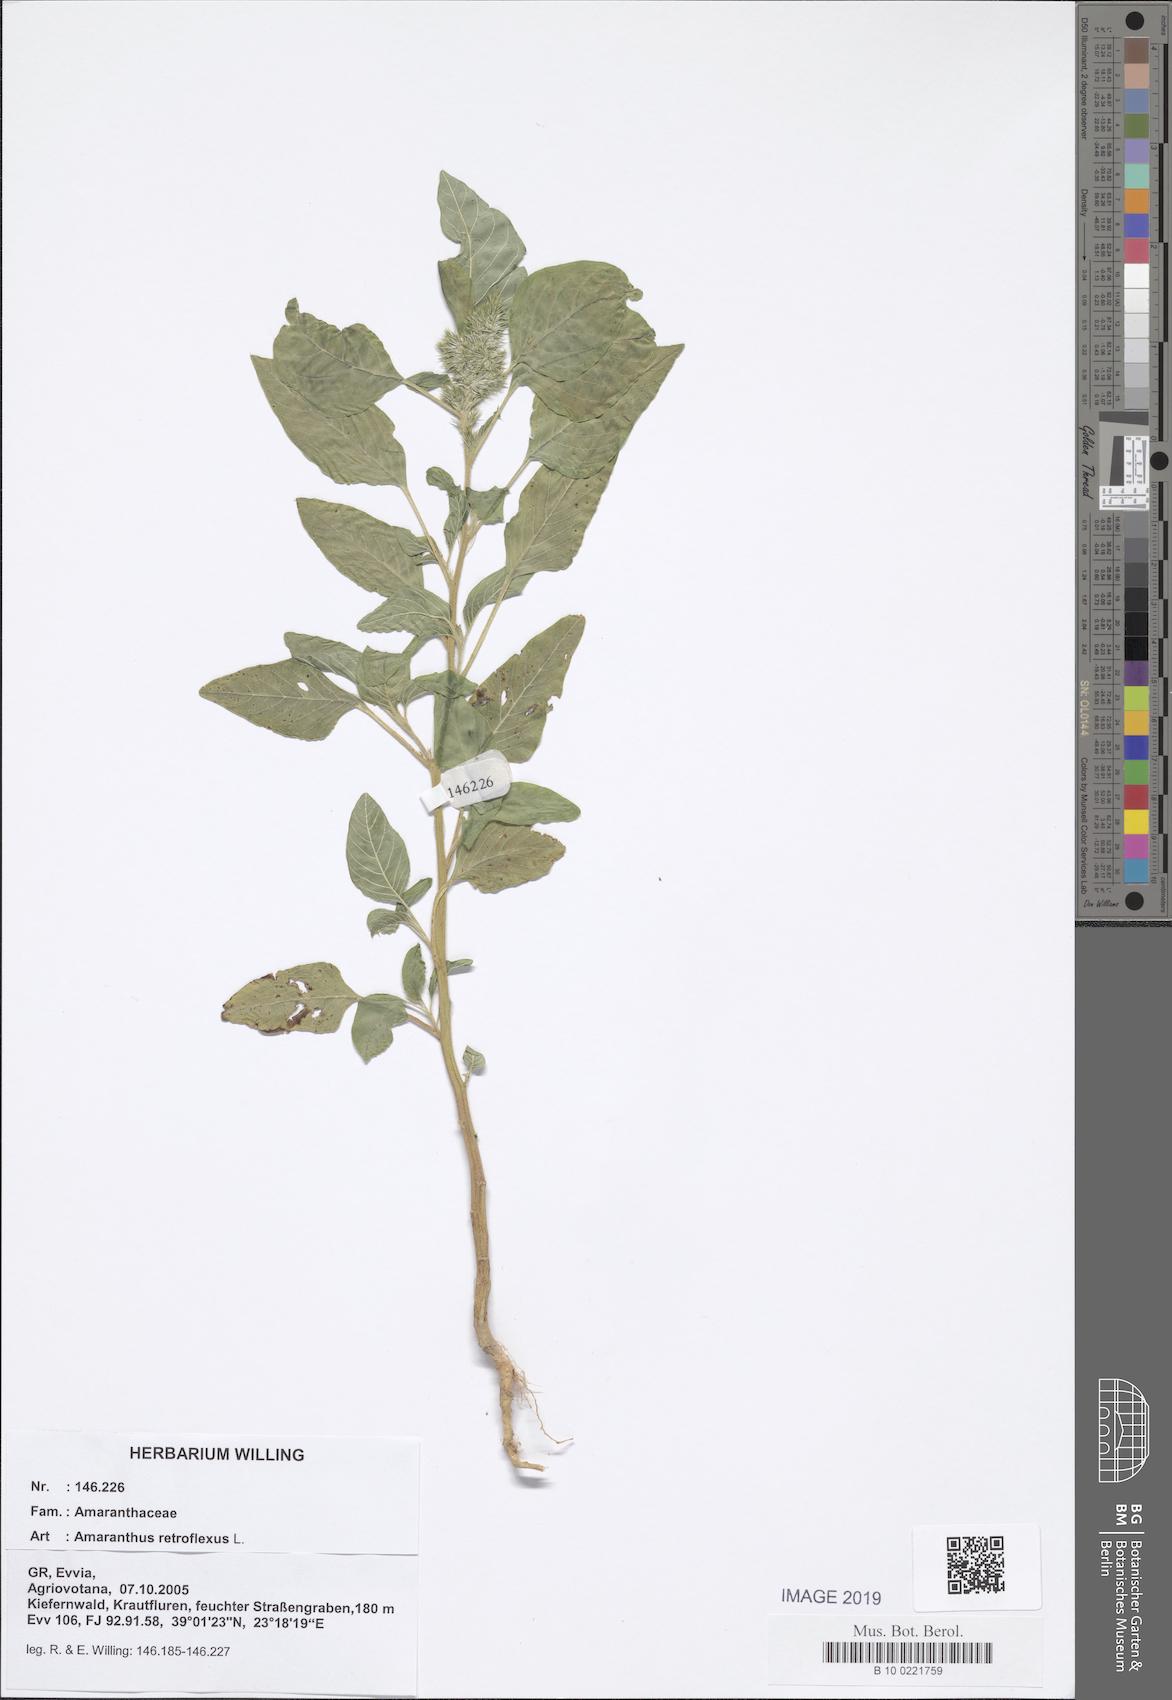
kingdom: Plantae
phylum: Tracheophyta
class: Magnoliopsida
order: Caryophyllales
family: Amaranthaceae
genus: Amaranthus
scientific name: Amaranthus retroflexus
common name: Redroot amaranth
